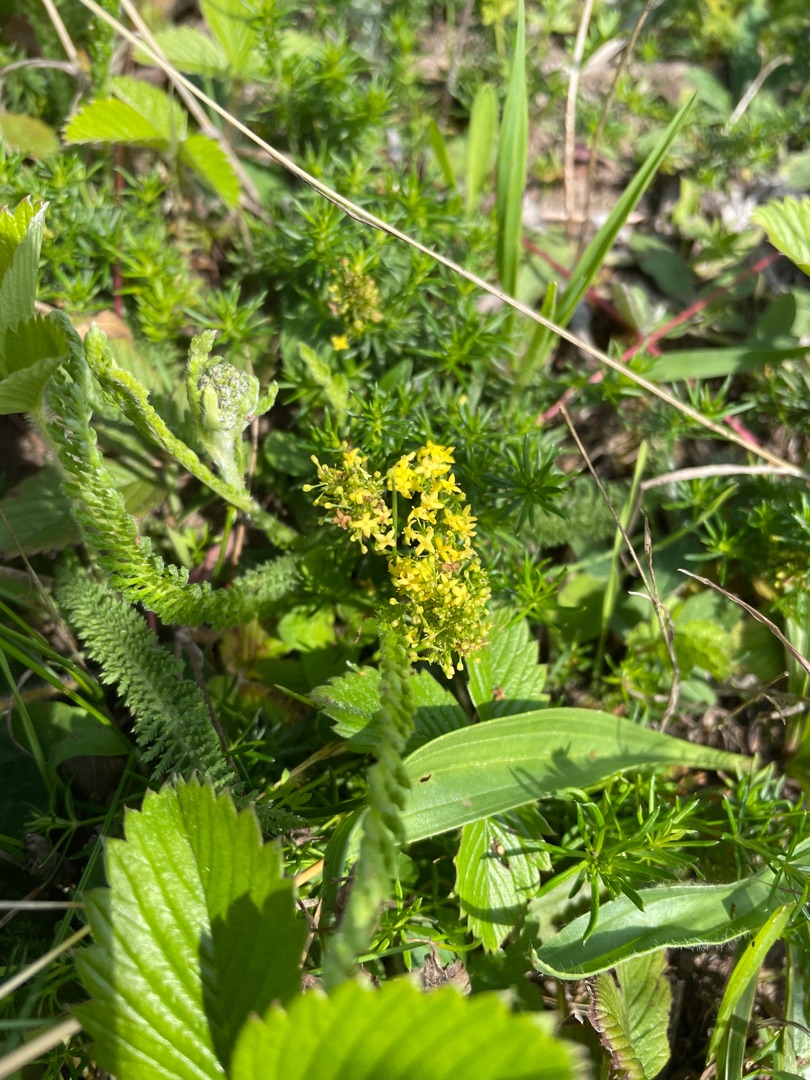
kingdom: Plantae
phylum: Tracheophyta
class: Magnoliopsida
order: Gentianales
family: Rubiaceae
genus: Galium
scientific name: Galium verum
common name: Gul snerre
